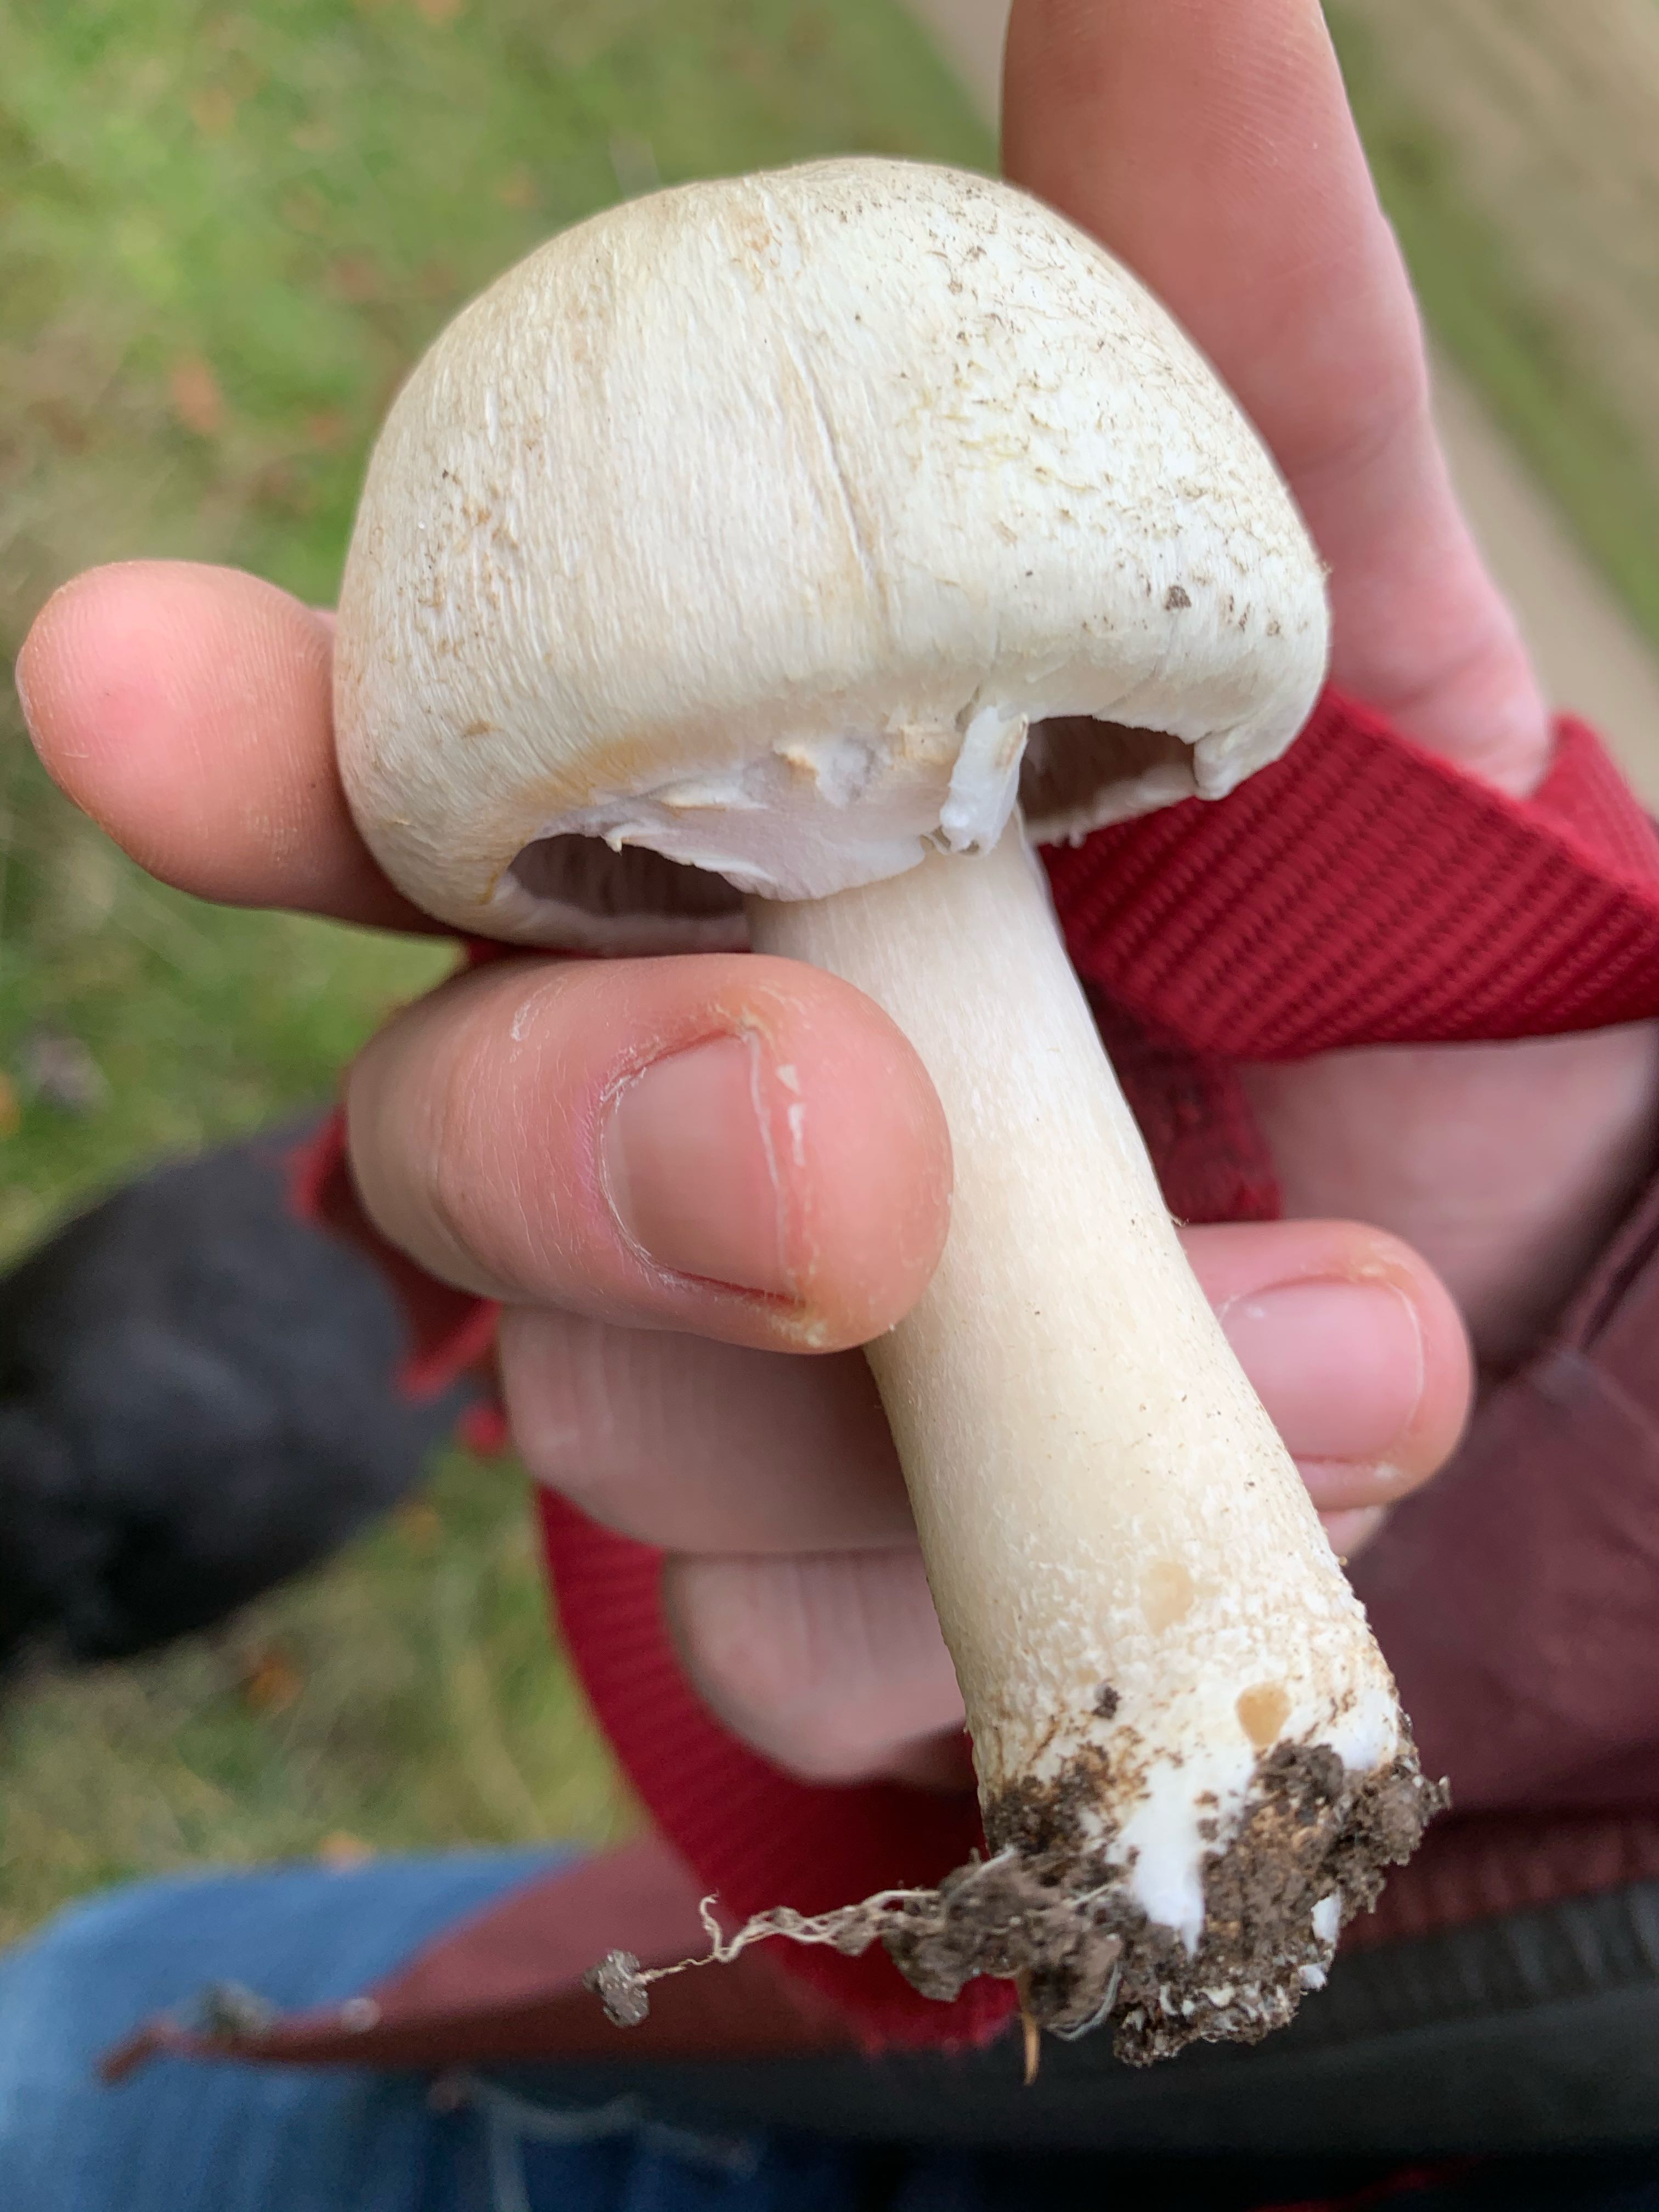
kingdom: Fungi
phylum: Basidiomycota
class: Agaricomycetes
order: Agaricales
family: Agaricaceae
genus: Agaricus
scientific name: Agaricus arvensis
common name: ager-champignon
